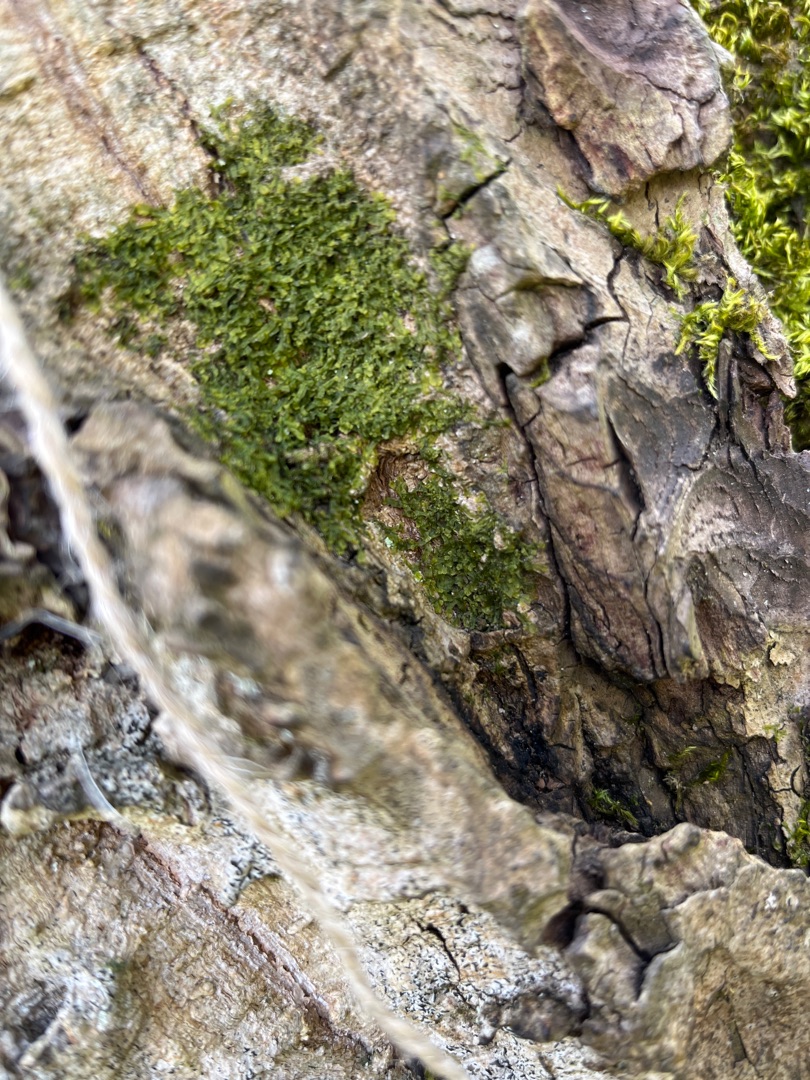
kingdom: Plantae
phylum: Marchantiophyta
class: Jungermanniopsida
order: Metzgeriales
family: Metzgeriaceae
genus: Metzgeria
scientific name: Metzgeria furcata
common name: Almindelig gaffelløv
